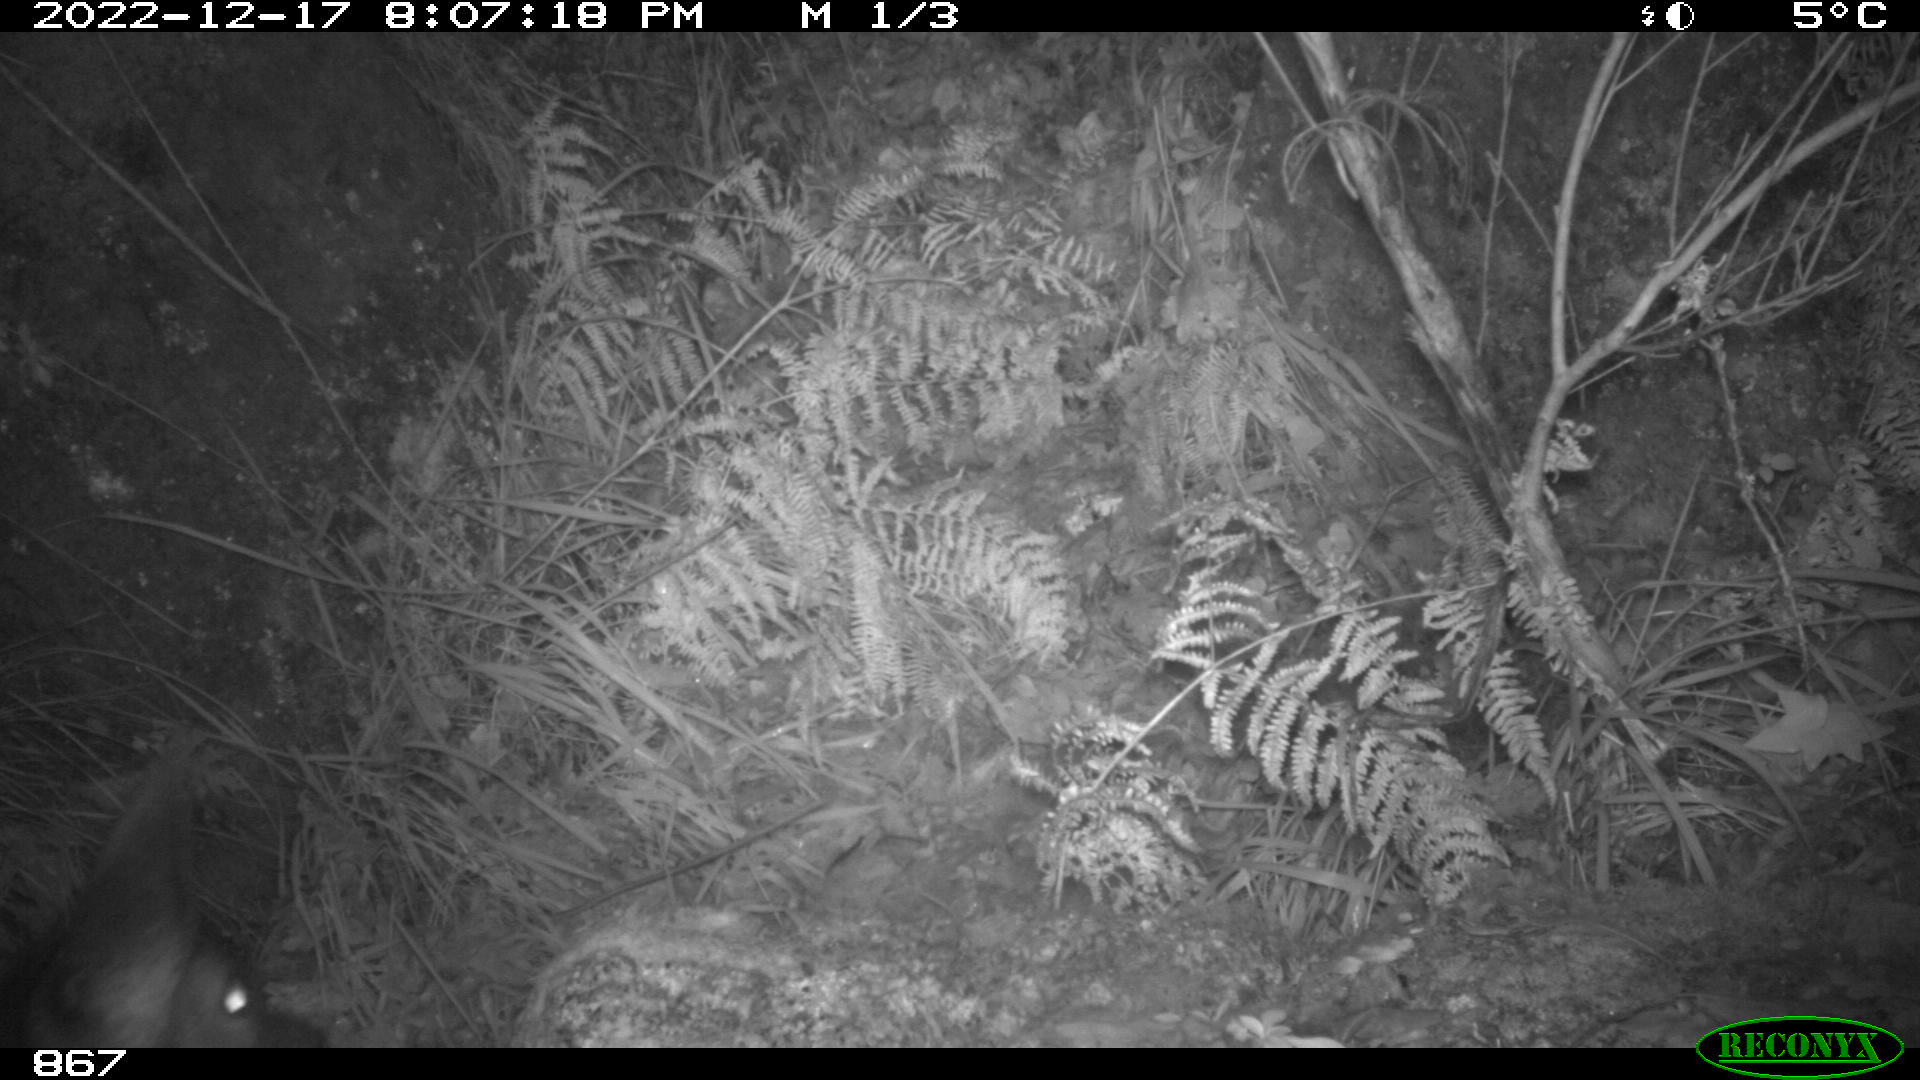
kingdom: Animalia
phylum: Chordata
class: Mammalia
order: Artiodactyla
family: Cervidae
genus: Capreolus
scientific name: Capreolus capreolus
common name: Western roe deer
